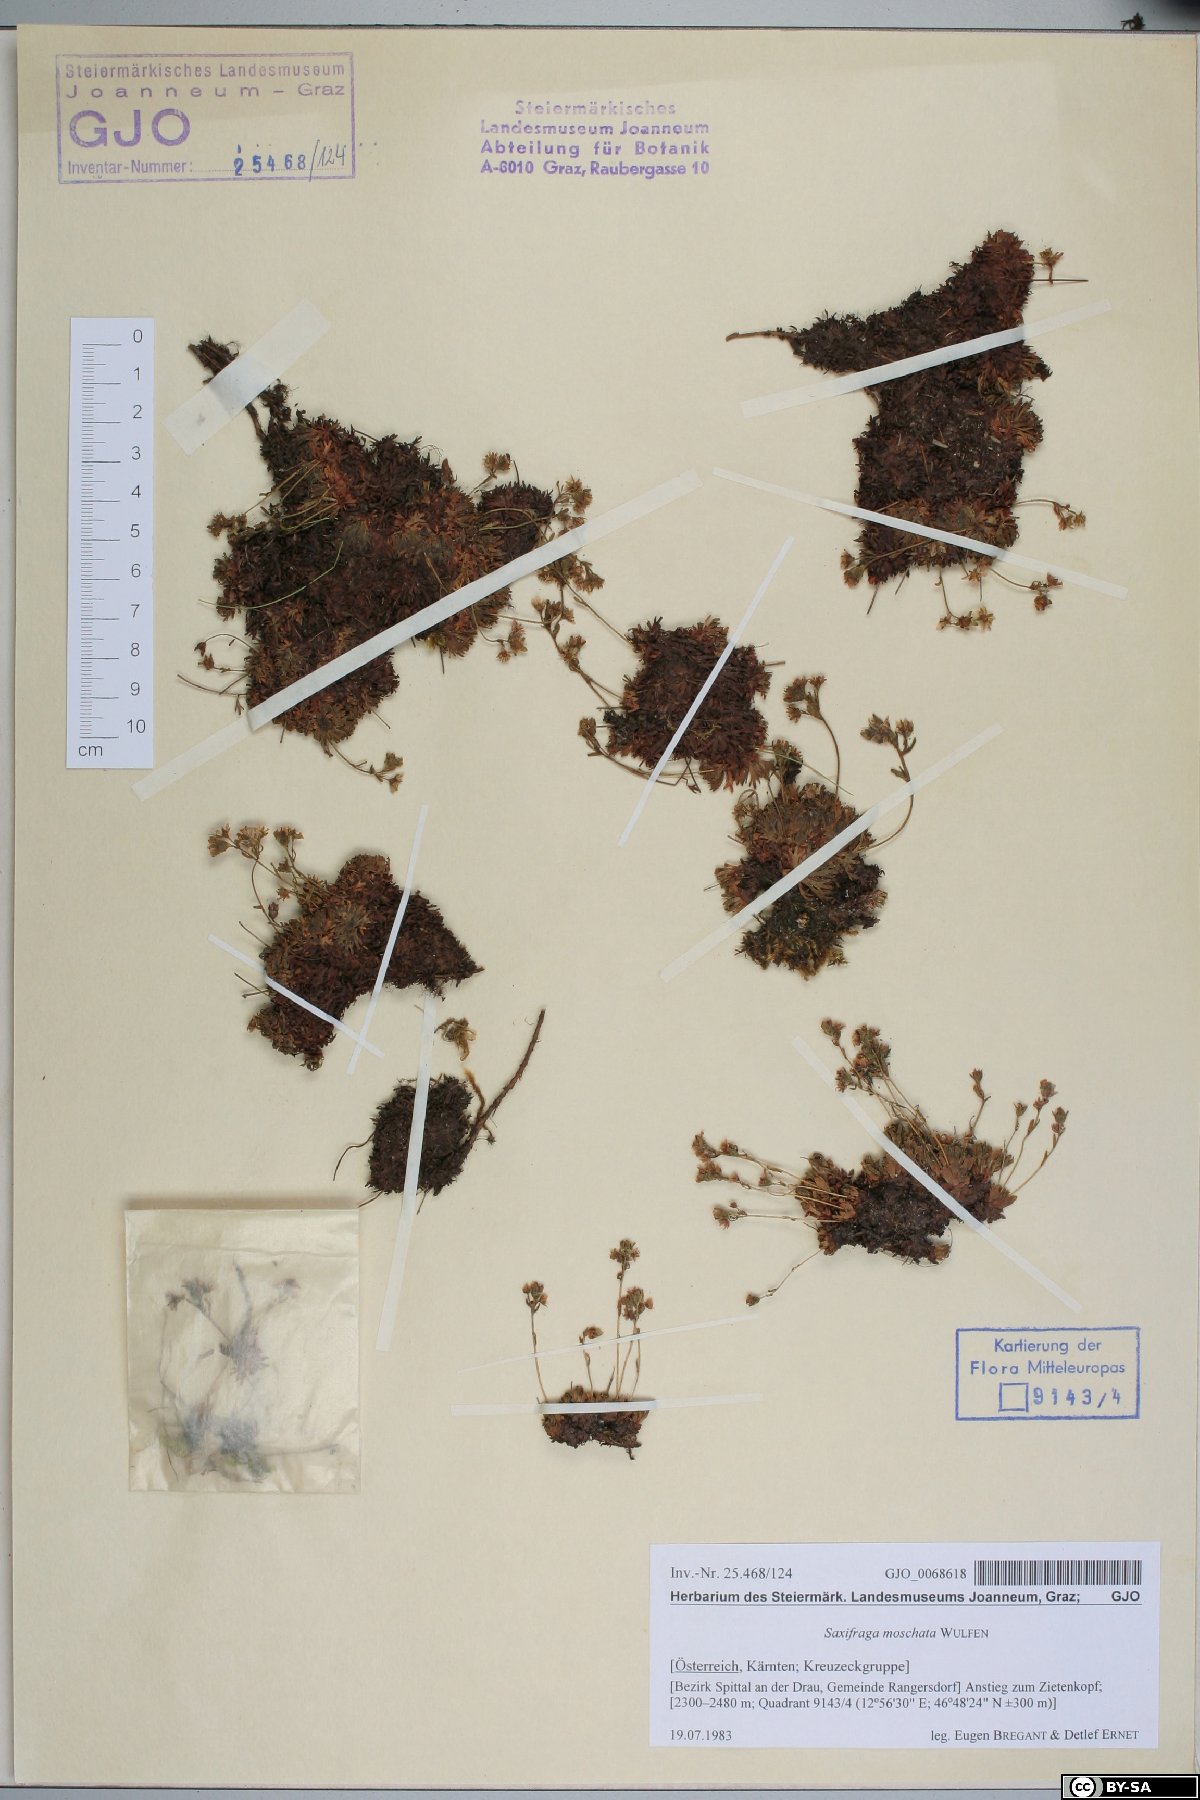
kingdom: Plantae
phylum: Tracheophyta
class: Magnoliopsida
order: Saxifragales
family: Saxifragaceae
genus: Saxifraga
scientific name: Saxifraga moschata
